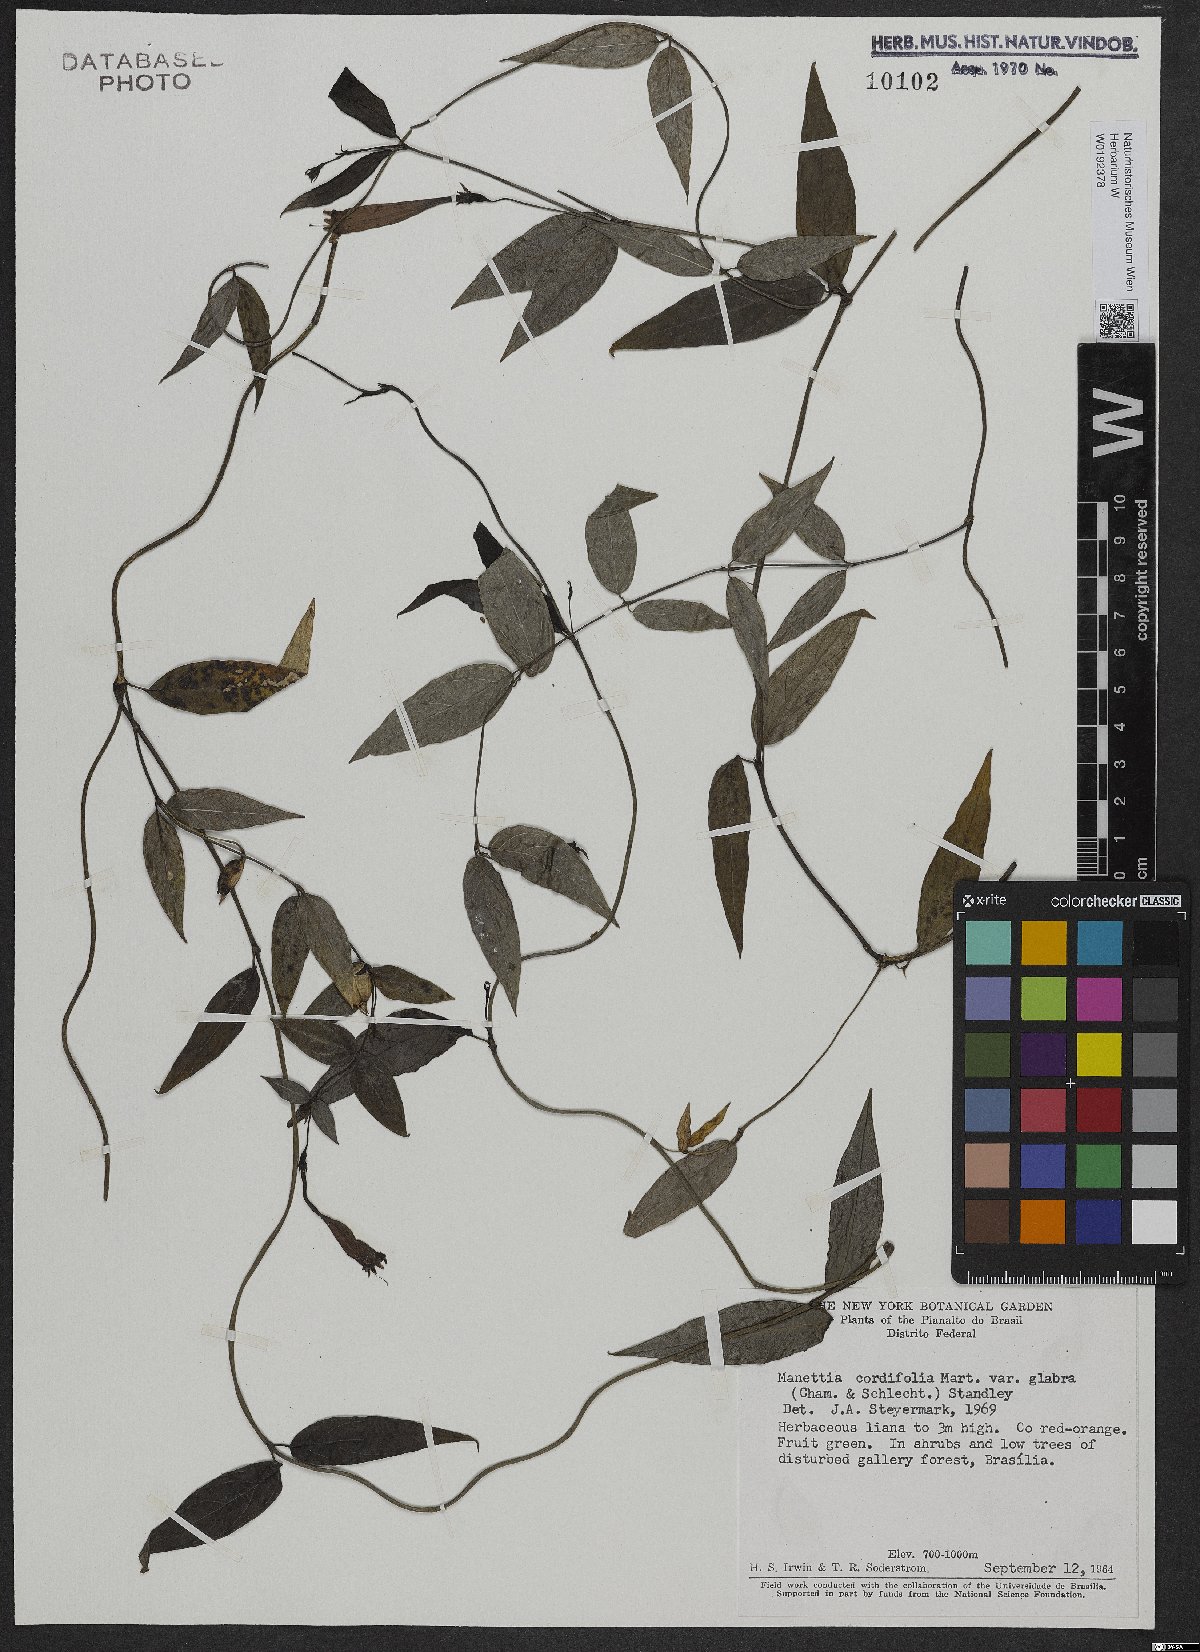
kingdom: Plantae
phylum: Tracheophyta
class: Magnoliopsida
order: Gentianales
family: Rubiaceae
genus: Manettia
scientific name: Manettia cordifolia
